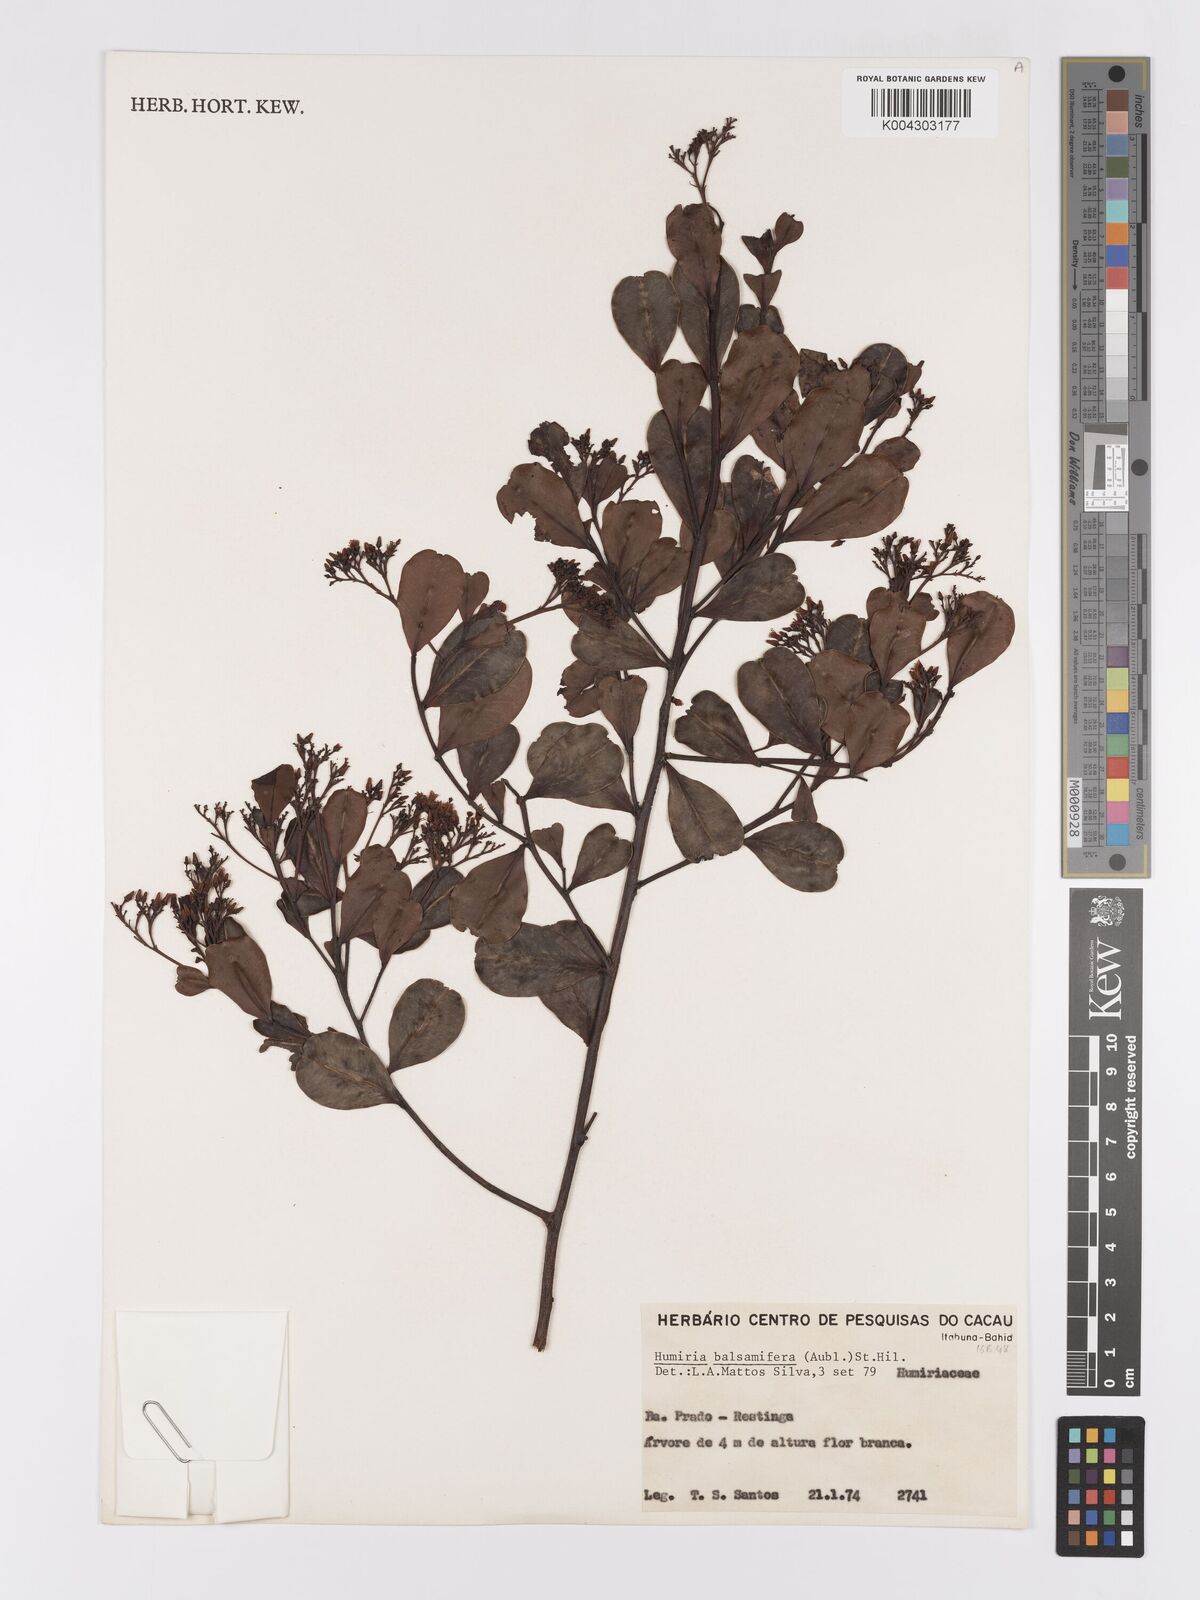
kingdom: Plantae
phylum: Tracheophyta
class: Magnoliopsida
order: Malpighiales
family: Humiriaceae
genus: Humiria
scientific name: Humiria parvifolia
